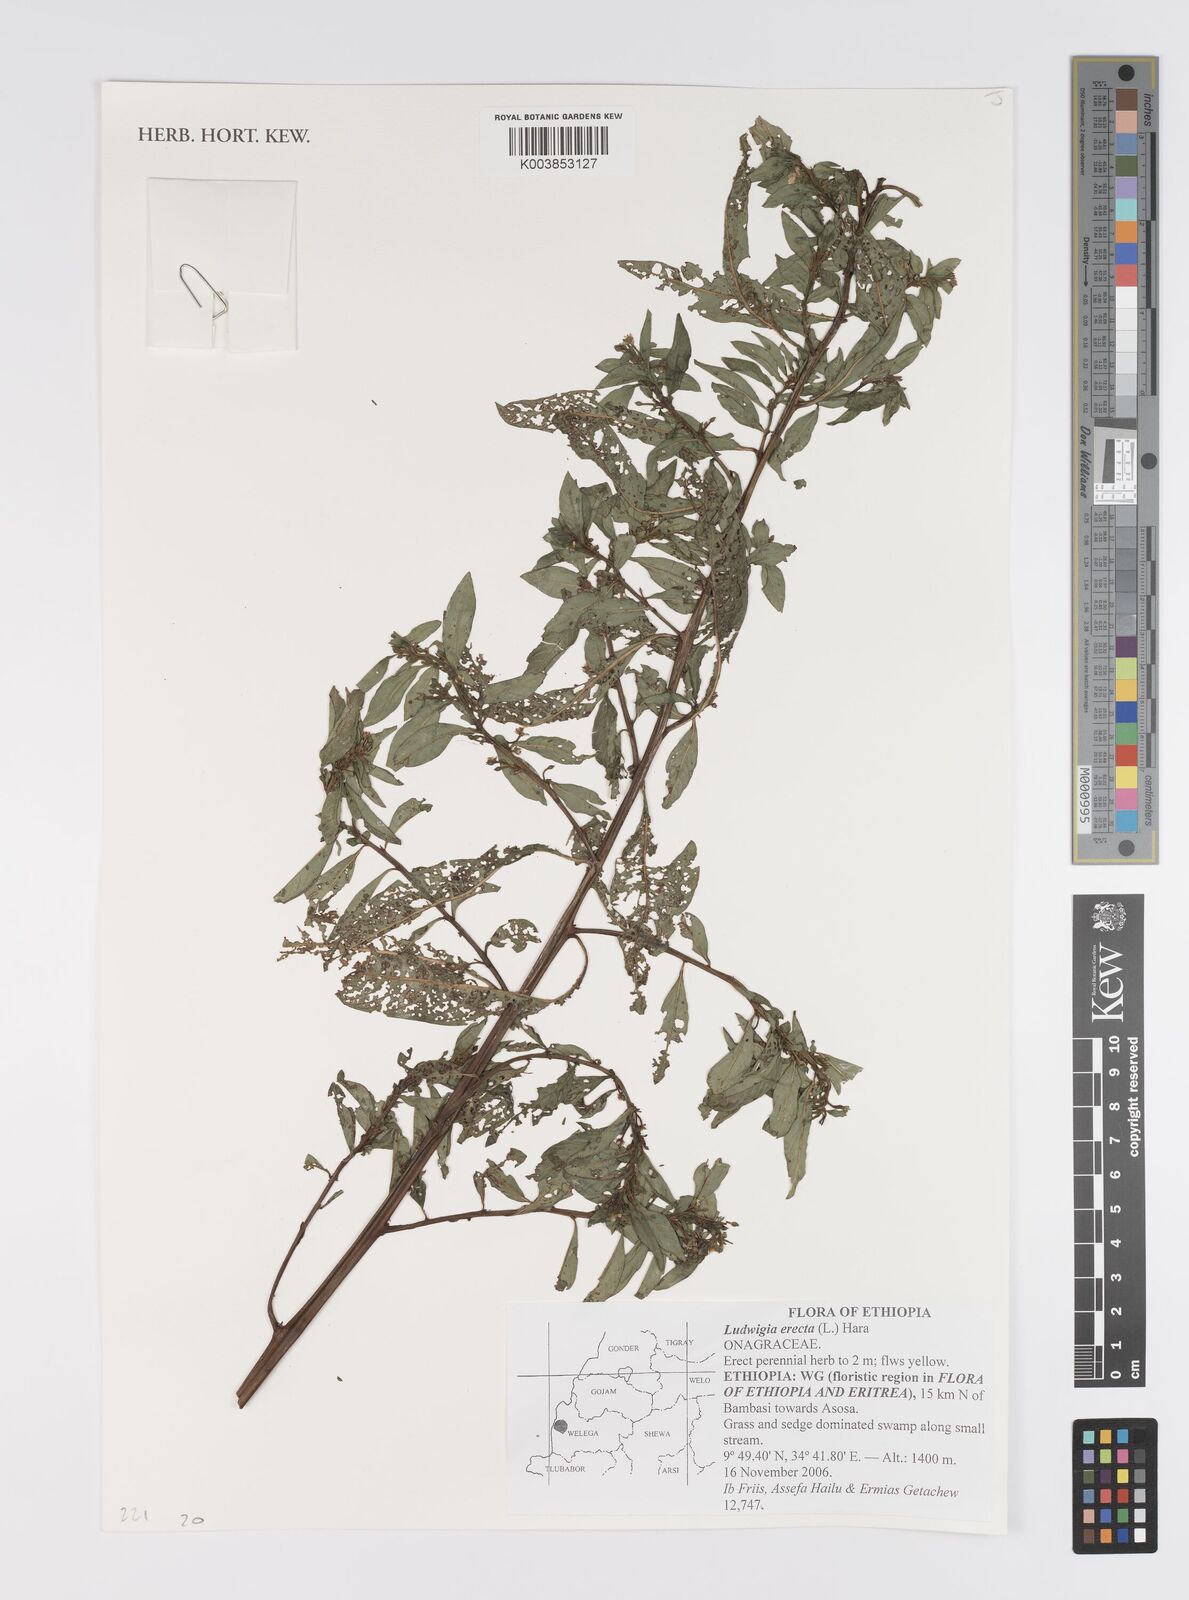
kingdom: Plantae
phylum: Tracheophyta
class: Magnoliopsida
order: Myrtales
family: Onagraceae
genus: Ludwigia
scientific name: Ludwigia erecta
